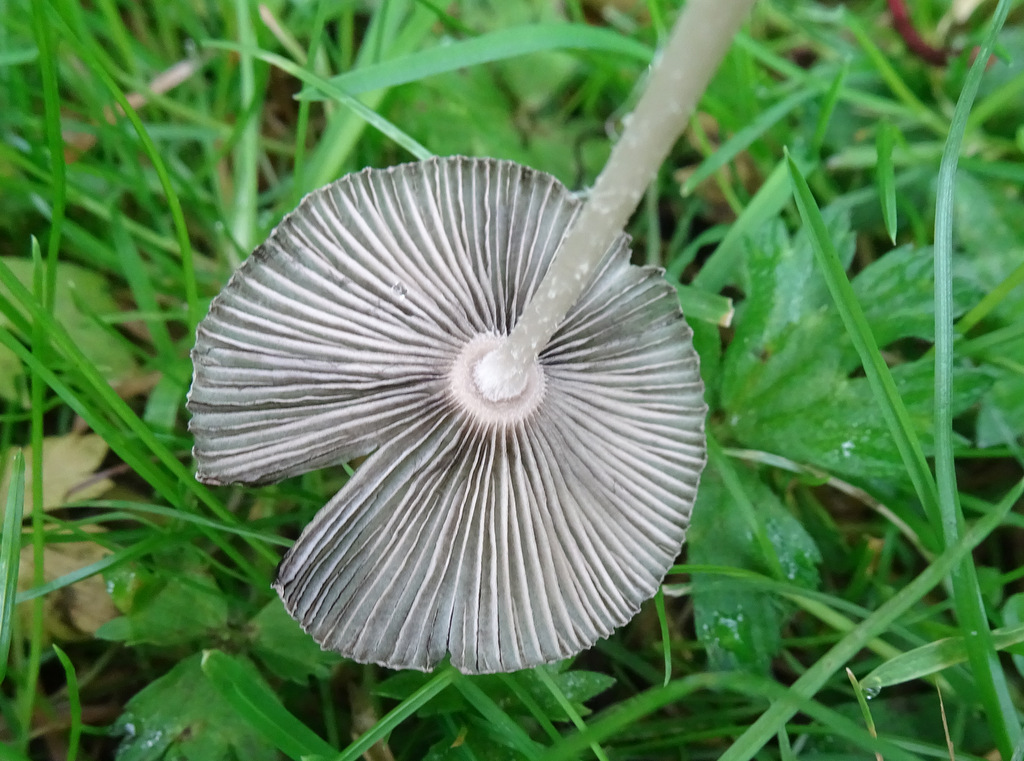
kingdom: Fungi
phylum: Basidiomycota
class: Agaricomycetes
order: Agaricales
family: Psathyrellaceae
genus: Parasola
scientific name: Parasola
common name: hjulhat
